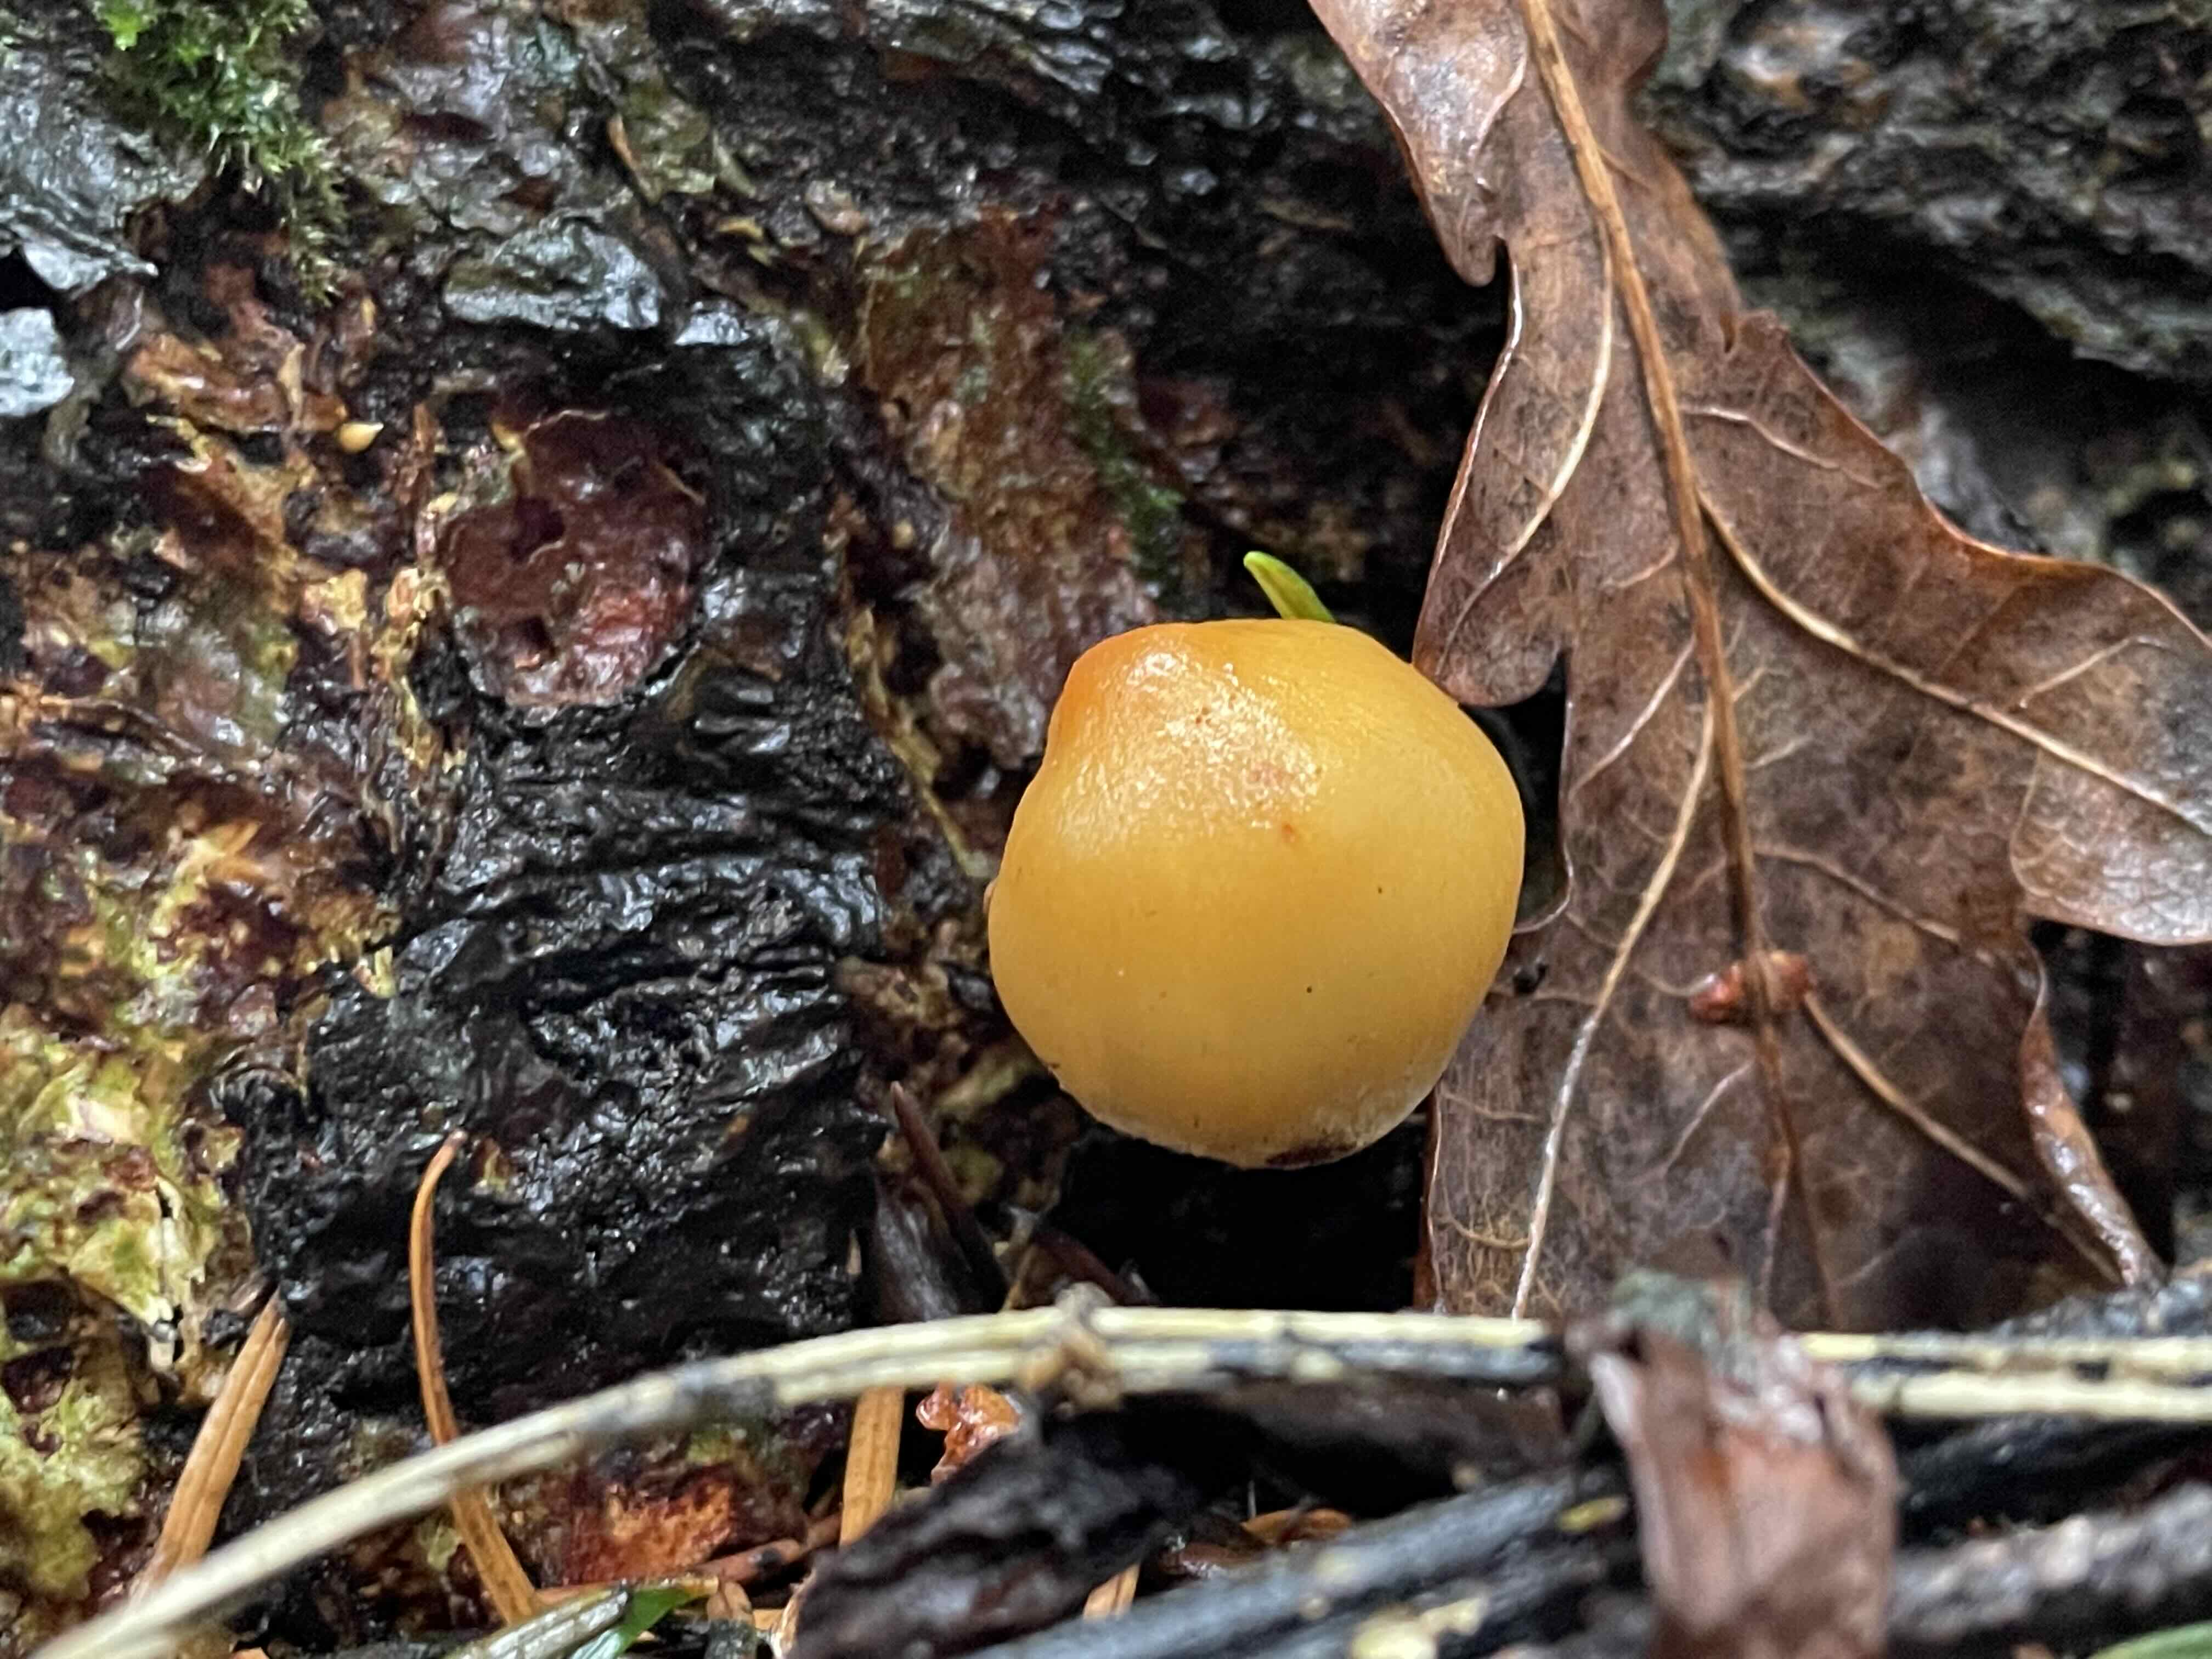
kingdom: Fungi
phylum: Basidiomycota
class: Agaricomycetes
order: Agaricales
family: Strophariaceae
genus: Hypholoma
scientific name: Hypholoma capnoides
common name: gran-svovlhat
